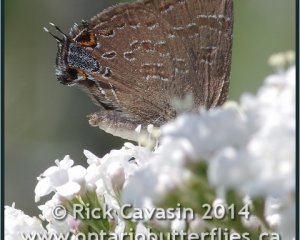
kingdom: Animalia
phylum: Arthropoda
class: Insecta
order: Lepidoptera
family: Lycaenidae
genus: Strymon
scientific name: Strymon caryaevorus
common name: Hickory Hairstreak
